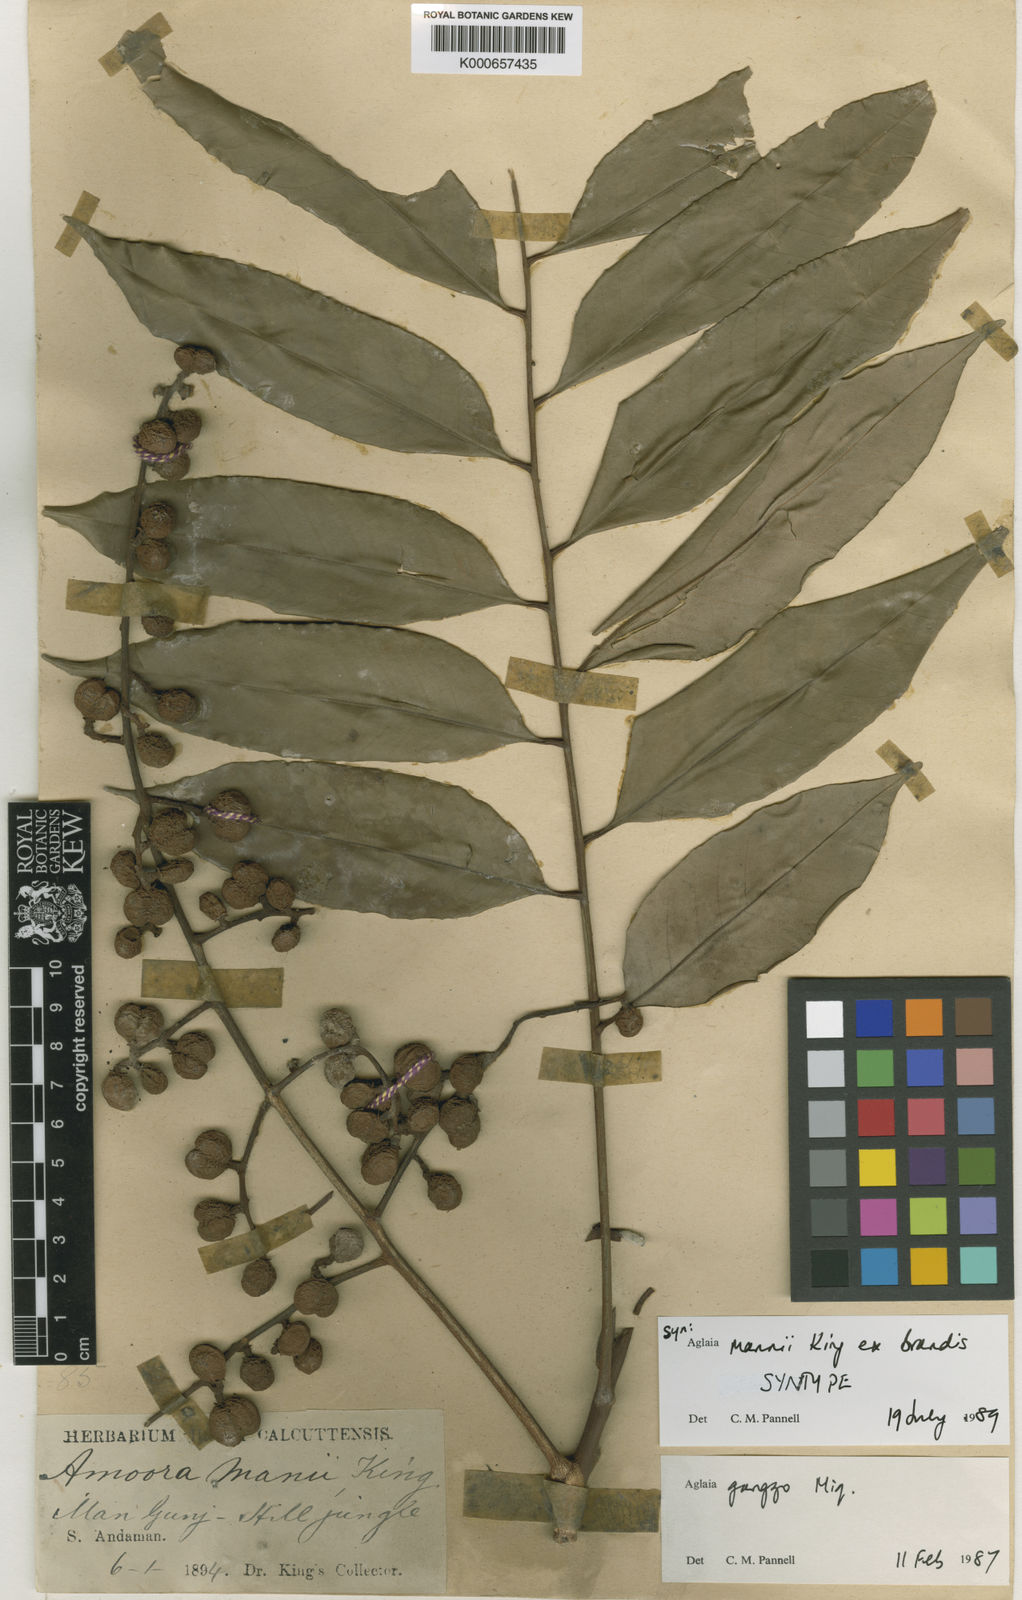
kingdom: Plantae
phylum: Tracheophyta
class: Magnoliopsida
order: Sapindales
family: Meliaceae
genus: Aglaia
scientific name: Aglaia silvestris
